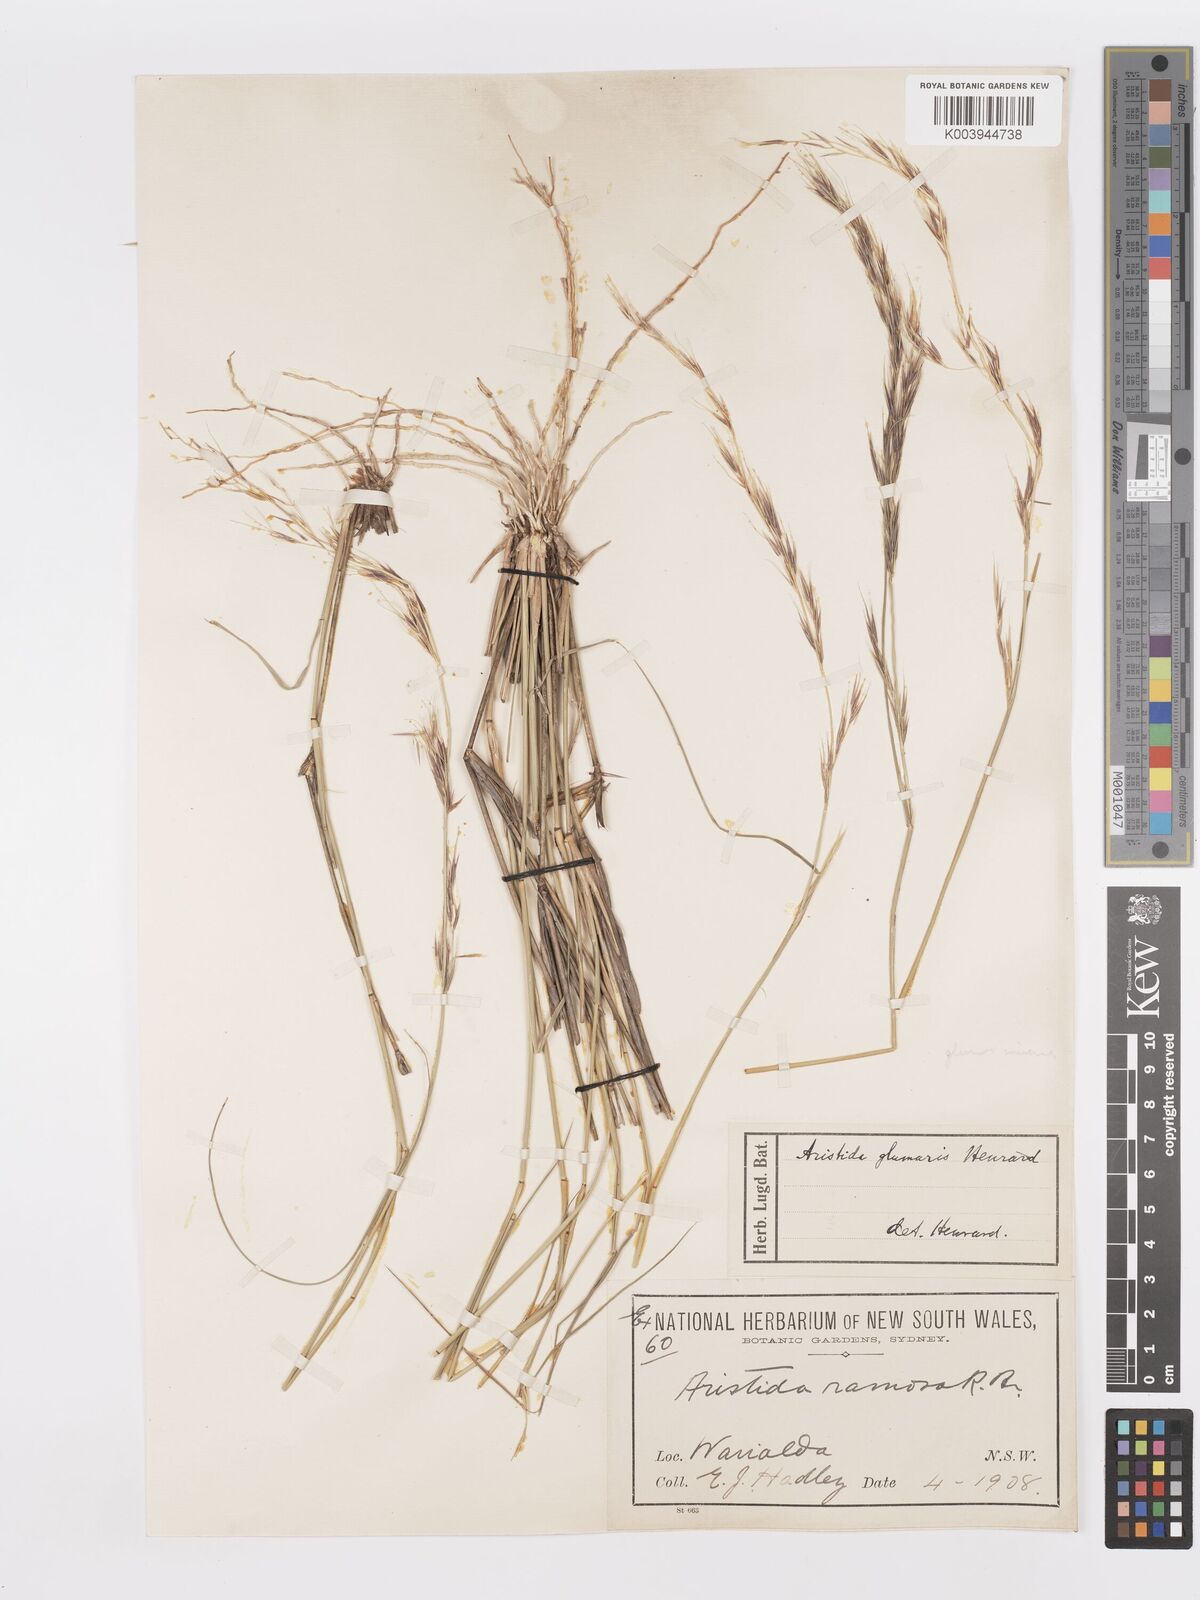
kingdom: Plantae
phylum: Tracheophyta
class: Liliopsida
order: Poales
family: Poaceae
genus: Aristida
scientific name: Aristida calycina
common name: Dark wire grass
